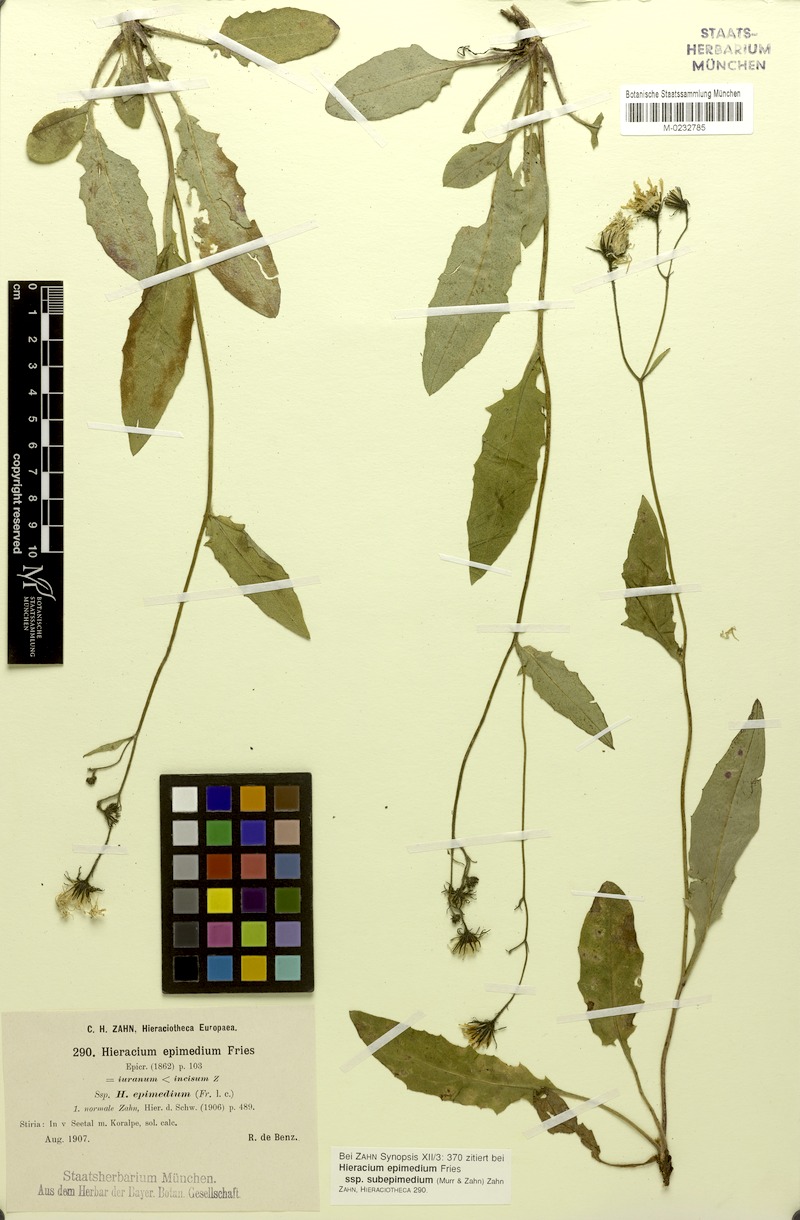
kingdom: Plantae
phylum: Tracheophyta
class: Magnoliopsida
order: Asterales
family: Asteraceae
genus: Hieracium
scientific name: Hieracium froelichianum
